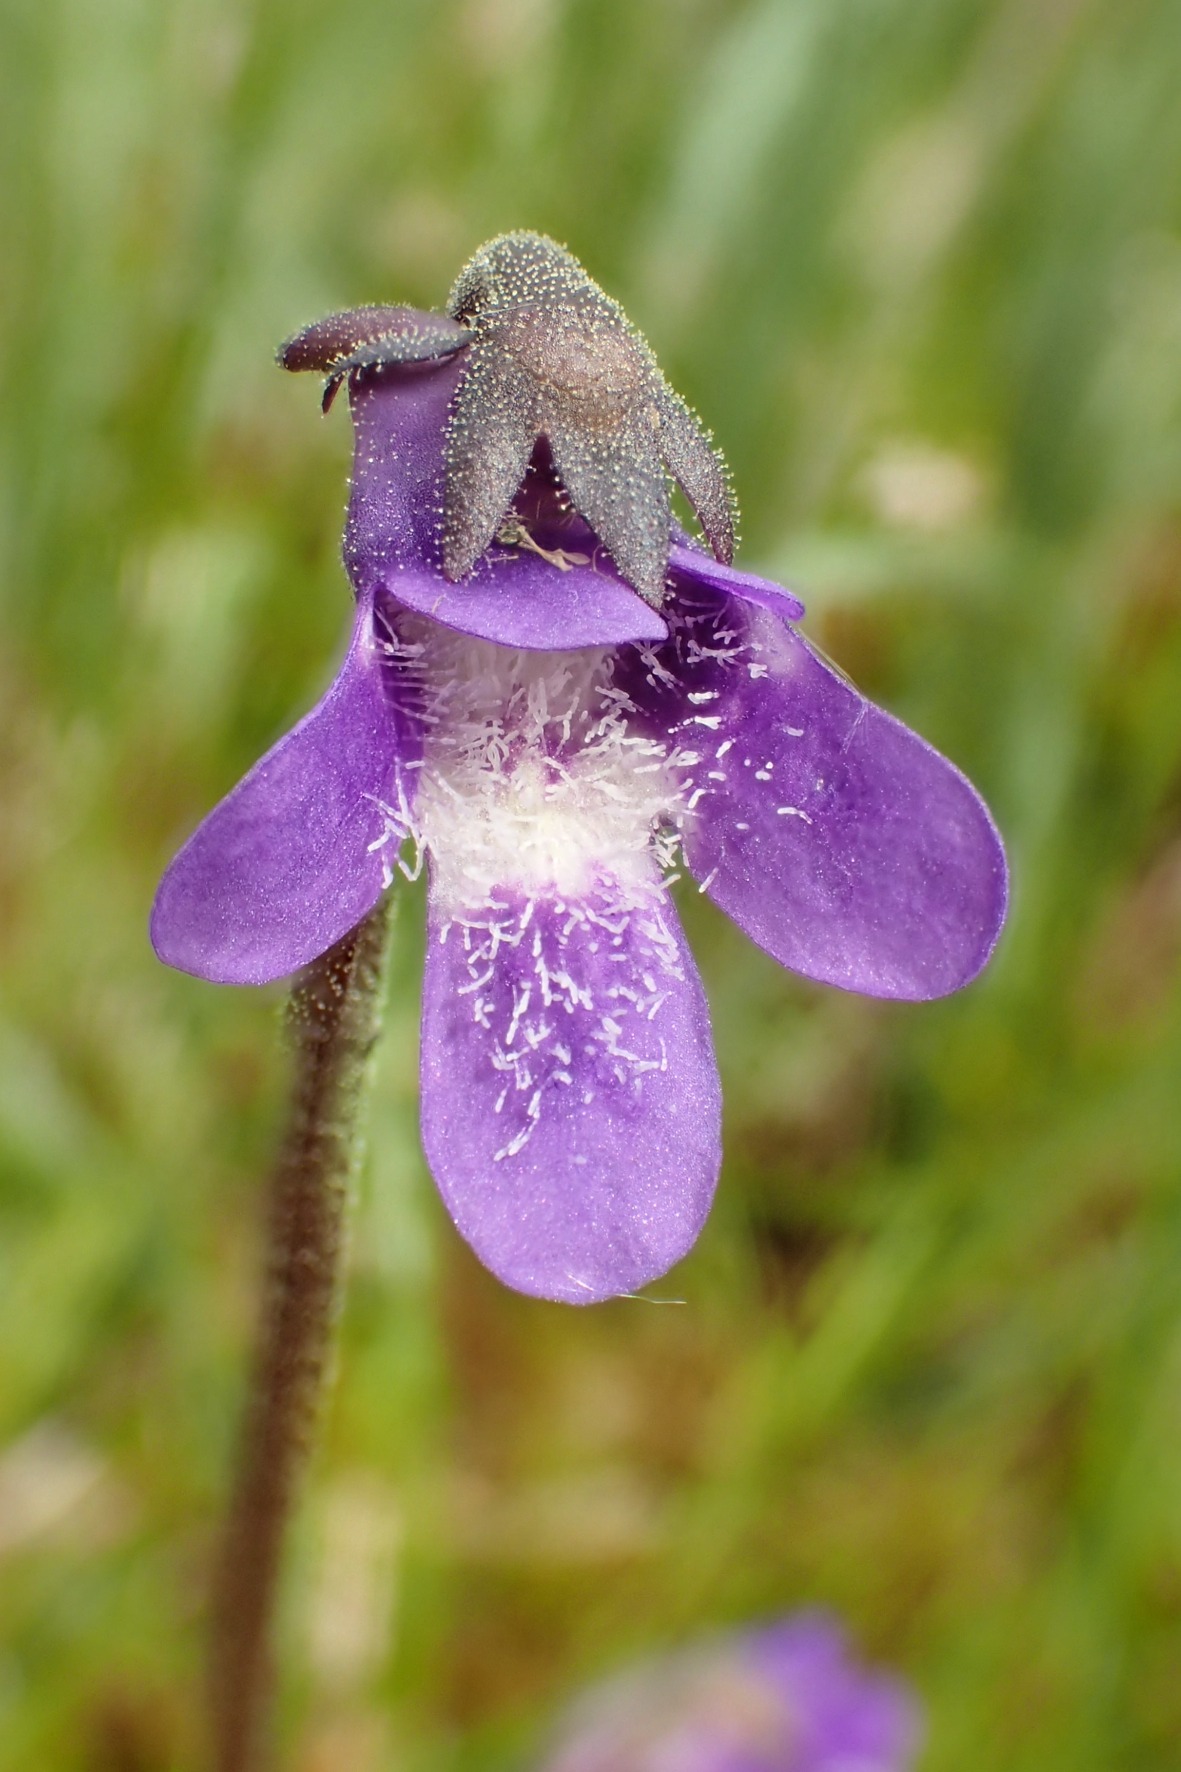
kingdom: Plantae
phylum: Tracheophyta
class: Magnoliopsida
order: Lamiales
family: Lentibulariaceae
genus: Pinguicula
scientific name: Pinguicula vulgaris
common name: Vibefedt
